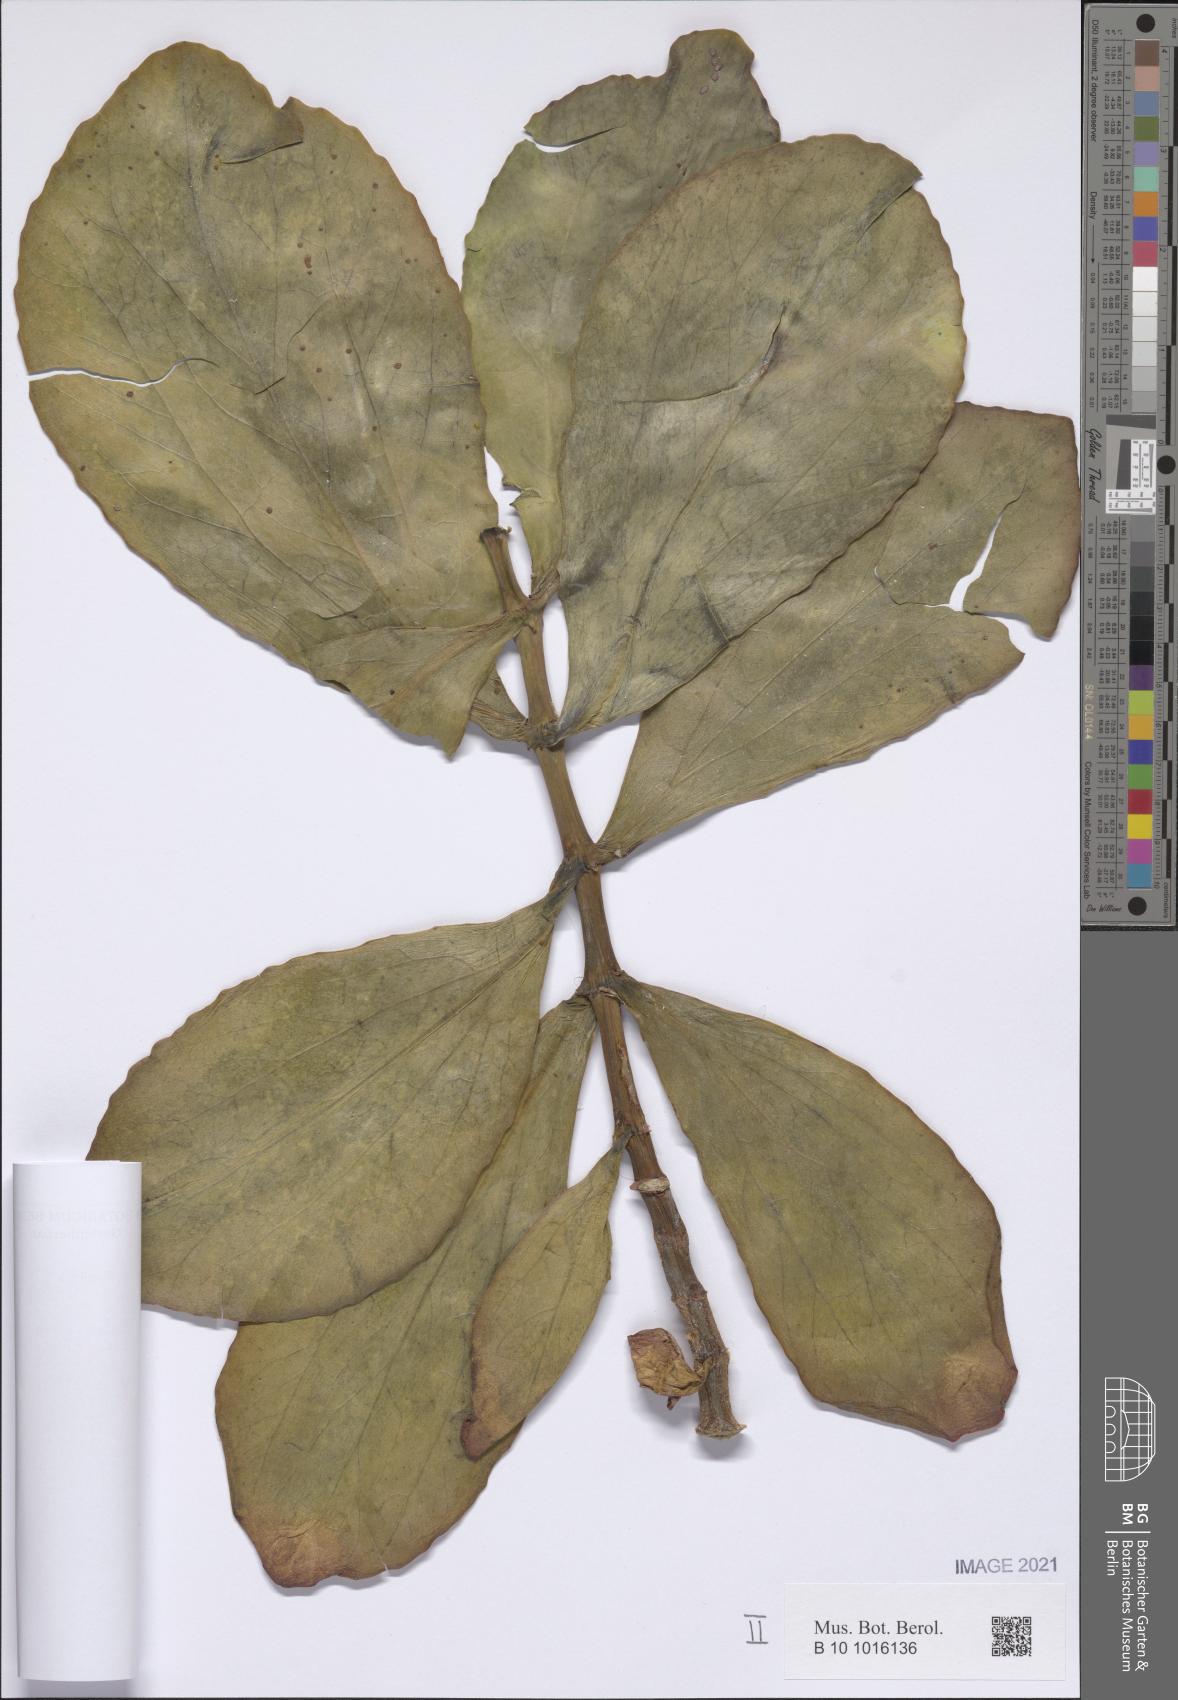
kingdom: Plantae
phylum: Tracheophyta
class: Magnoliopsida
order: Saxifragales
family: Crassulaceae
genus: Kalanchoe
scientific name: Kalanchoe prittwitzii
